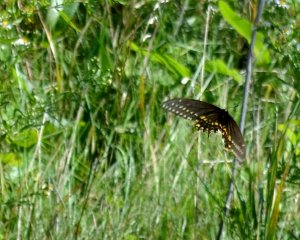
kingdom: Animalia
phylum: Arthropoda
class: Insecta
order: Lepidoptera
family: Papilionidae
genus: Papilio
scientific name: Papilio polyxenes
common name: Black Swallowtail
